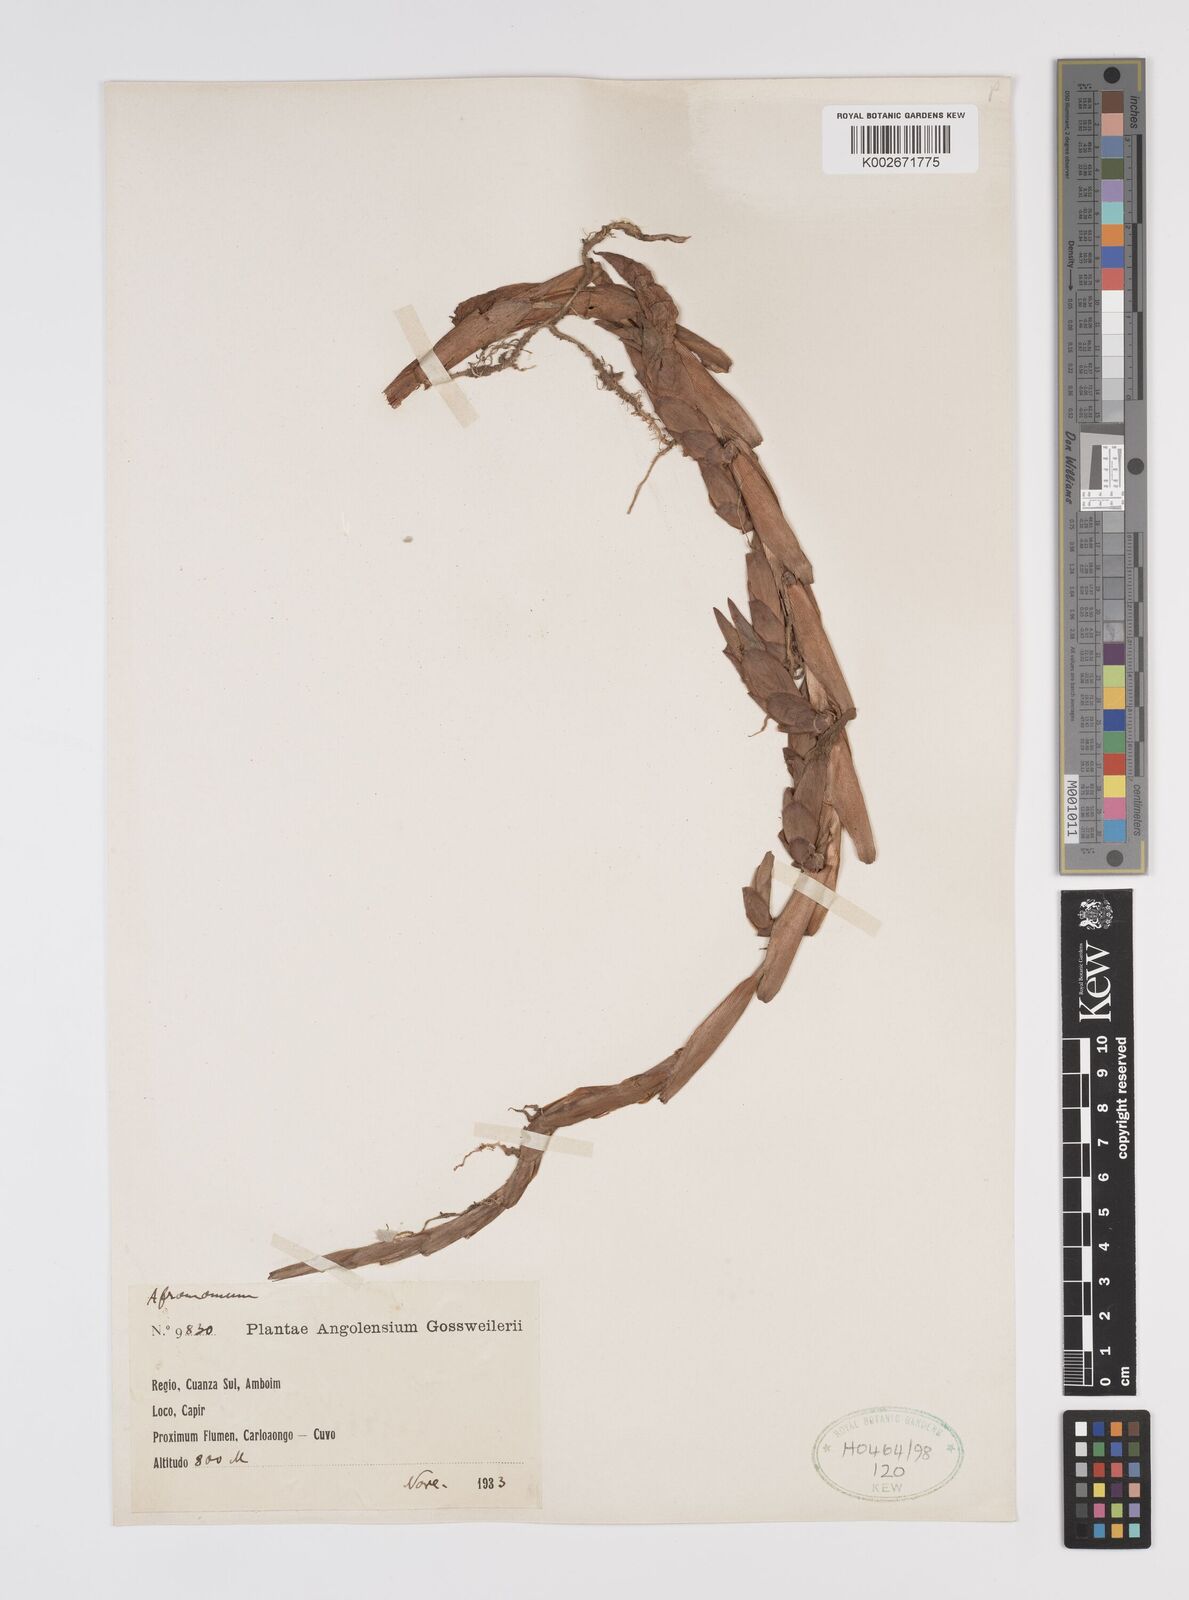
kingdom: Plantae
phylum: Tracheophyta
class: Liliopsida
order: Zingiberales
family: Zingiberaceae
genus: Aframomum
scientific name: Aframomum
